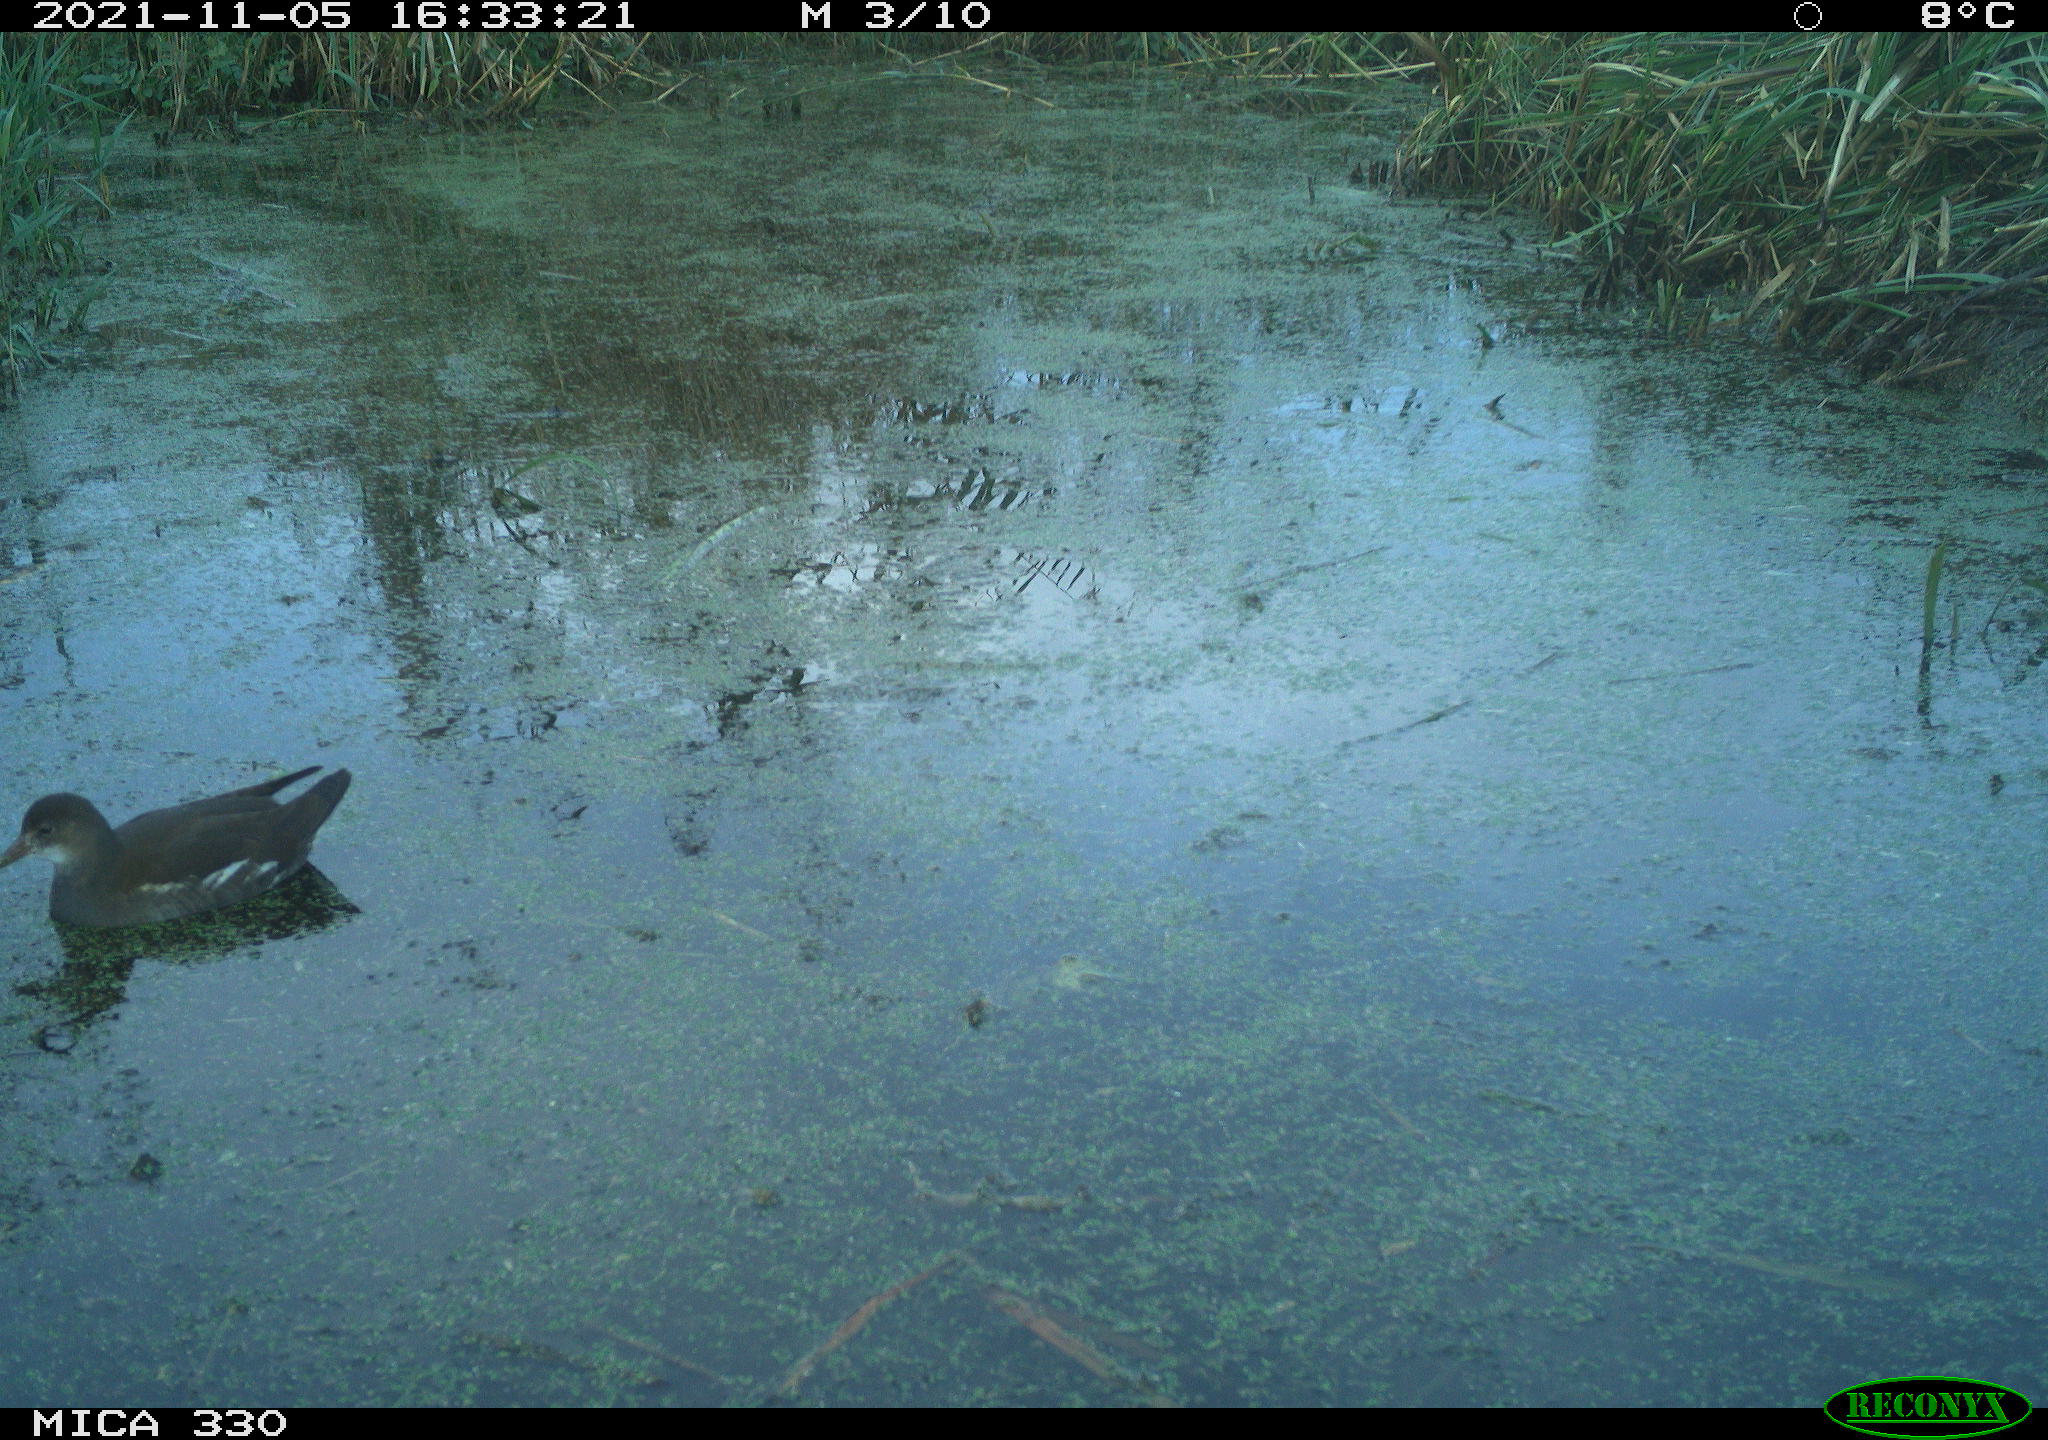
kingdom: Animalia
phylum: Chordata
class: Aves
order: Gruiformes
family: Rallidae
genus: Gallinula
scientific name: Gallinula chloropus
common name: Common moorhen
